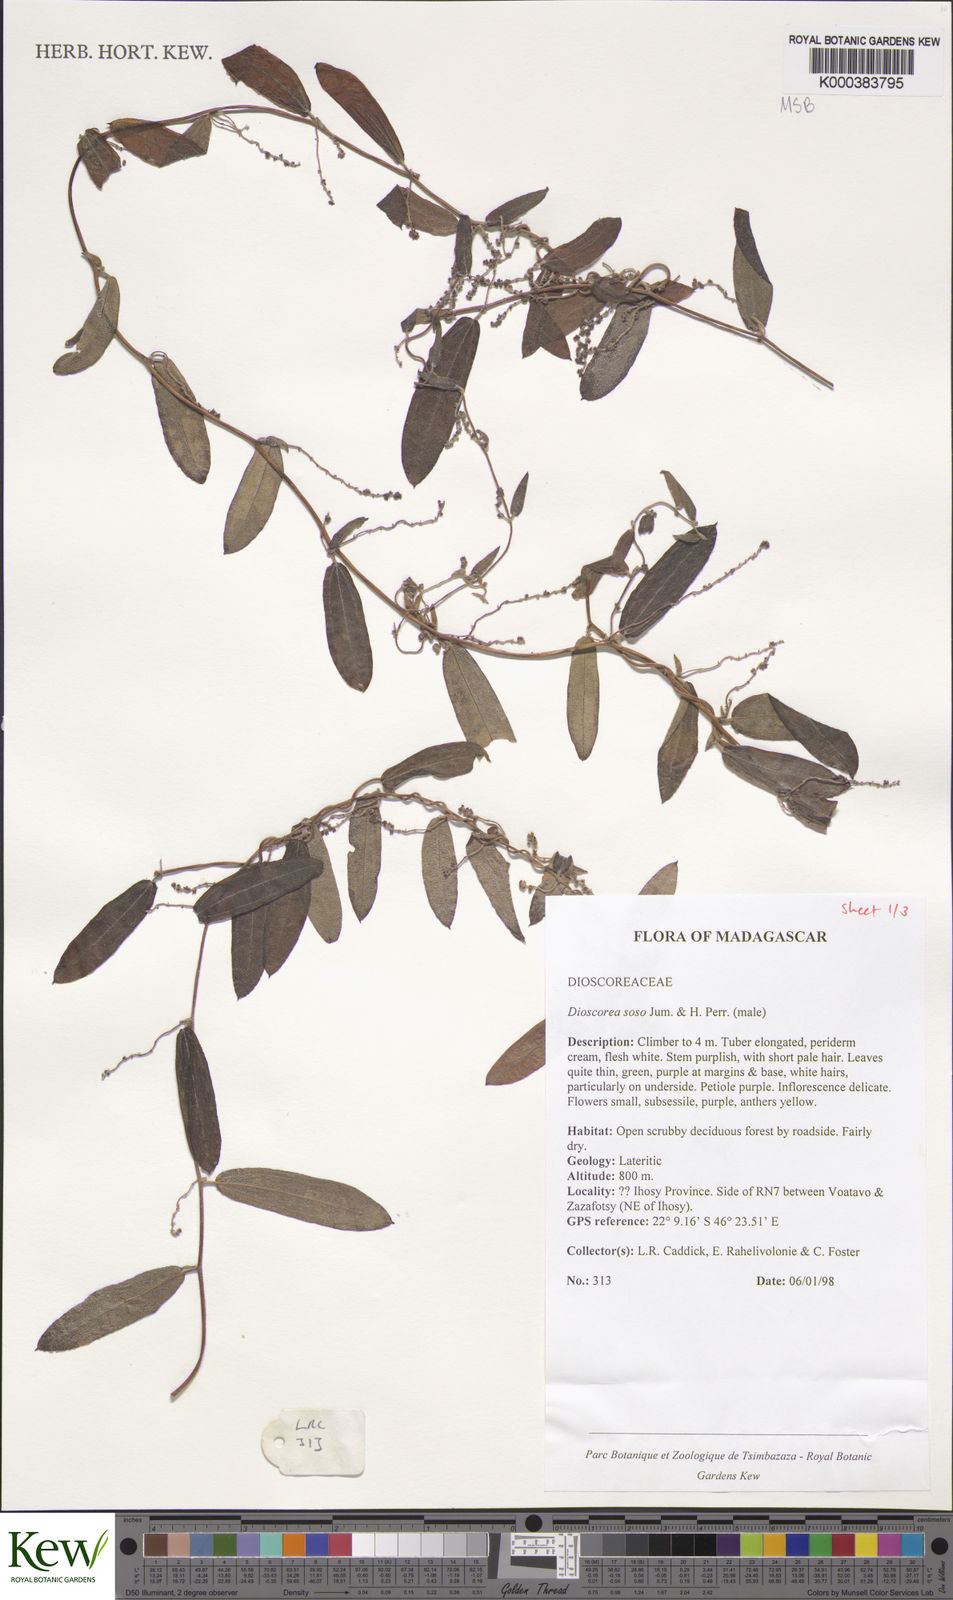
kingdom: Plantae
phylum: Tracheophyta
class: Liliopsida
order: Dioscoreales
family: Dioscoreaceae
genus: Dioscorea
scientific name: Dioscorea
